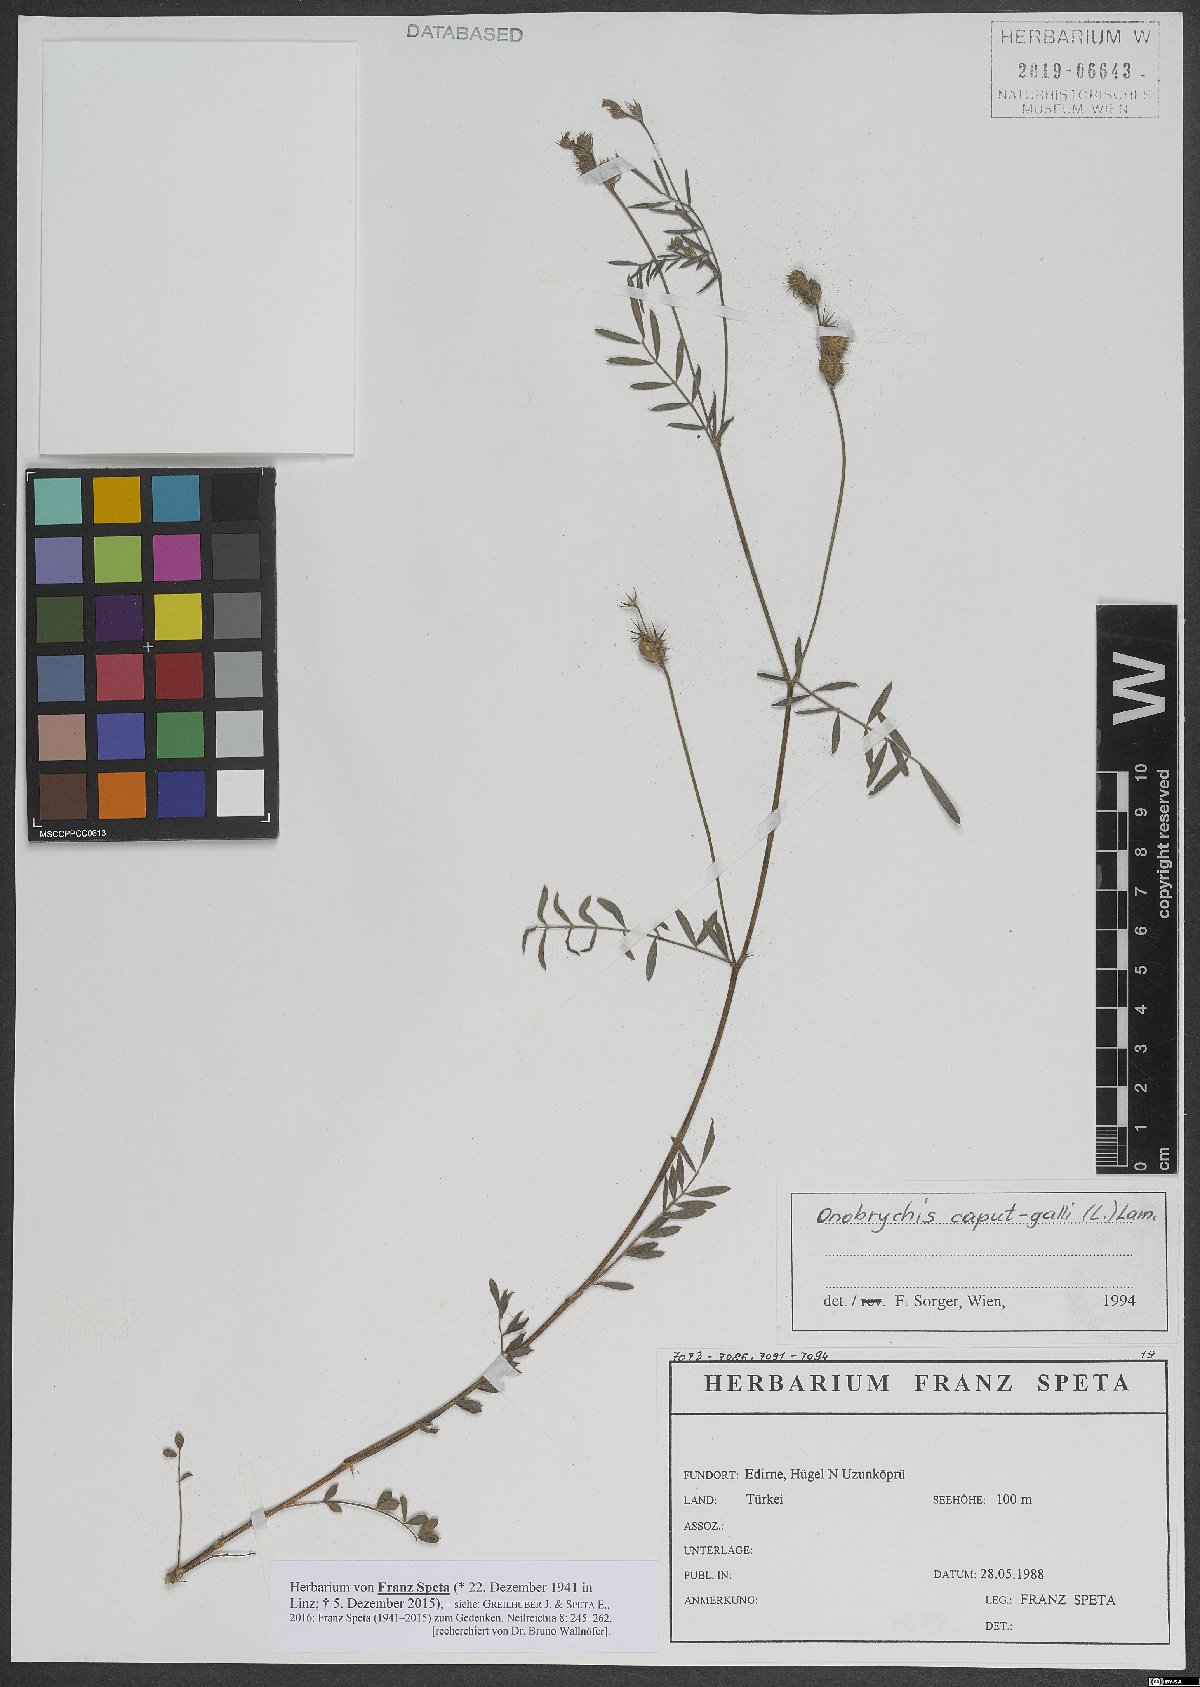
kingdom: Plantae
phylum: Tracheophyta
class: Magnoliopsida
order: Fabales
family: Fabaceae
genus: Onobrychis
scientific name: Onobrychis caput-galli
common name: Cockscomb sainfoin
